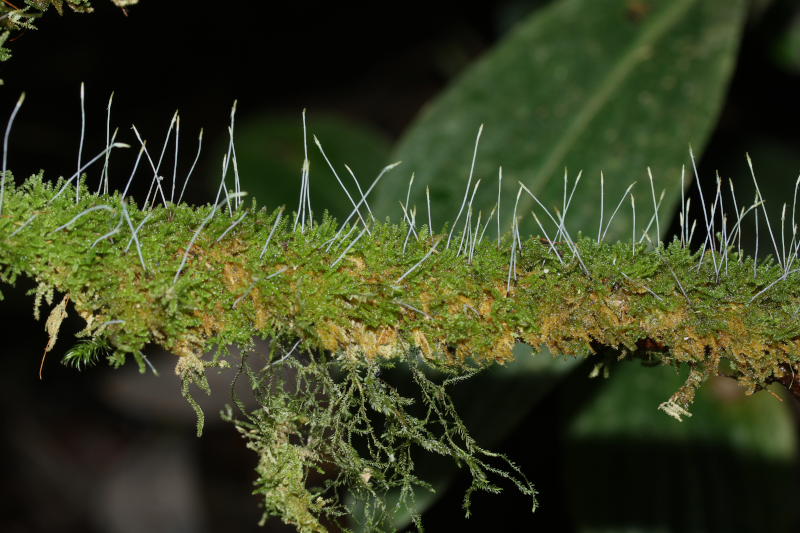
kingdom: Plantae
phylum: Bryophyta
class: Bryopsida
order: Hypnales
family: Symphyodontaceae
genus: Chaetomitriopsis
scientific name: Chaetomitriopsis glaucocarpos
